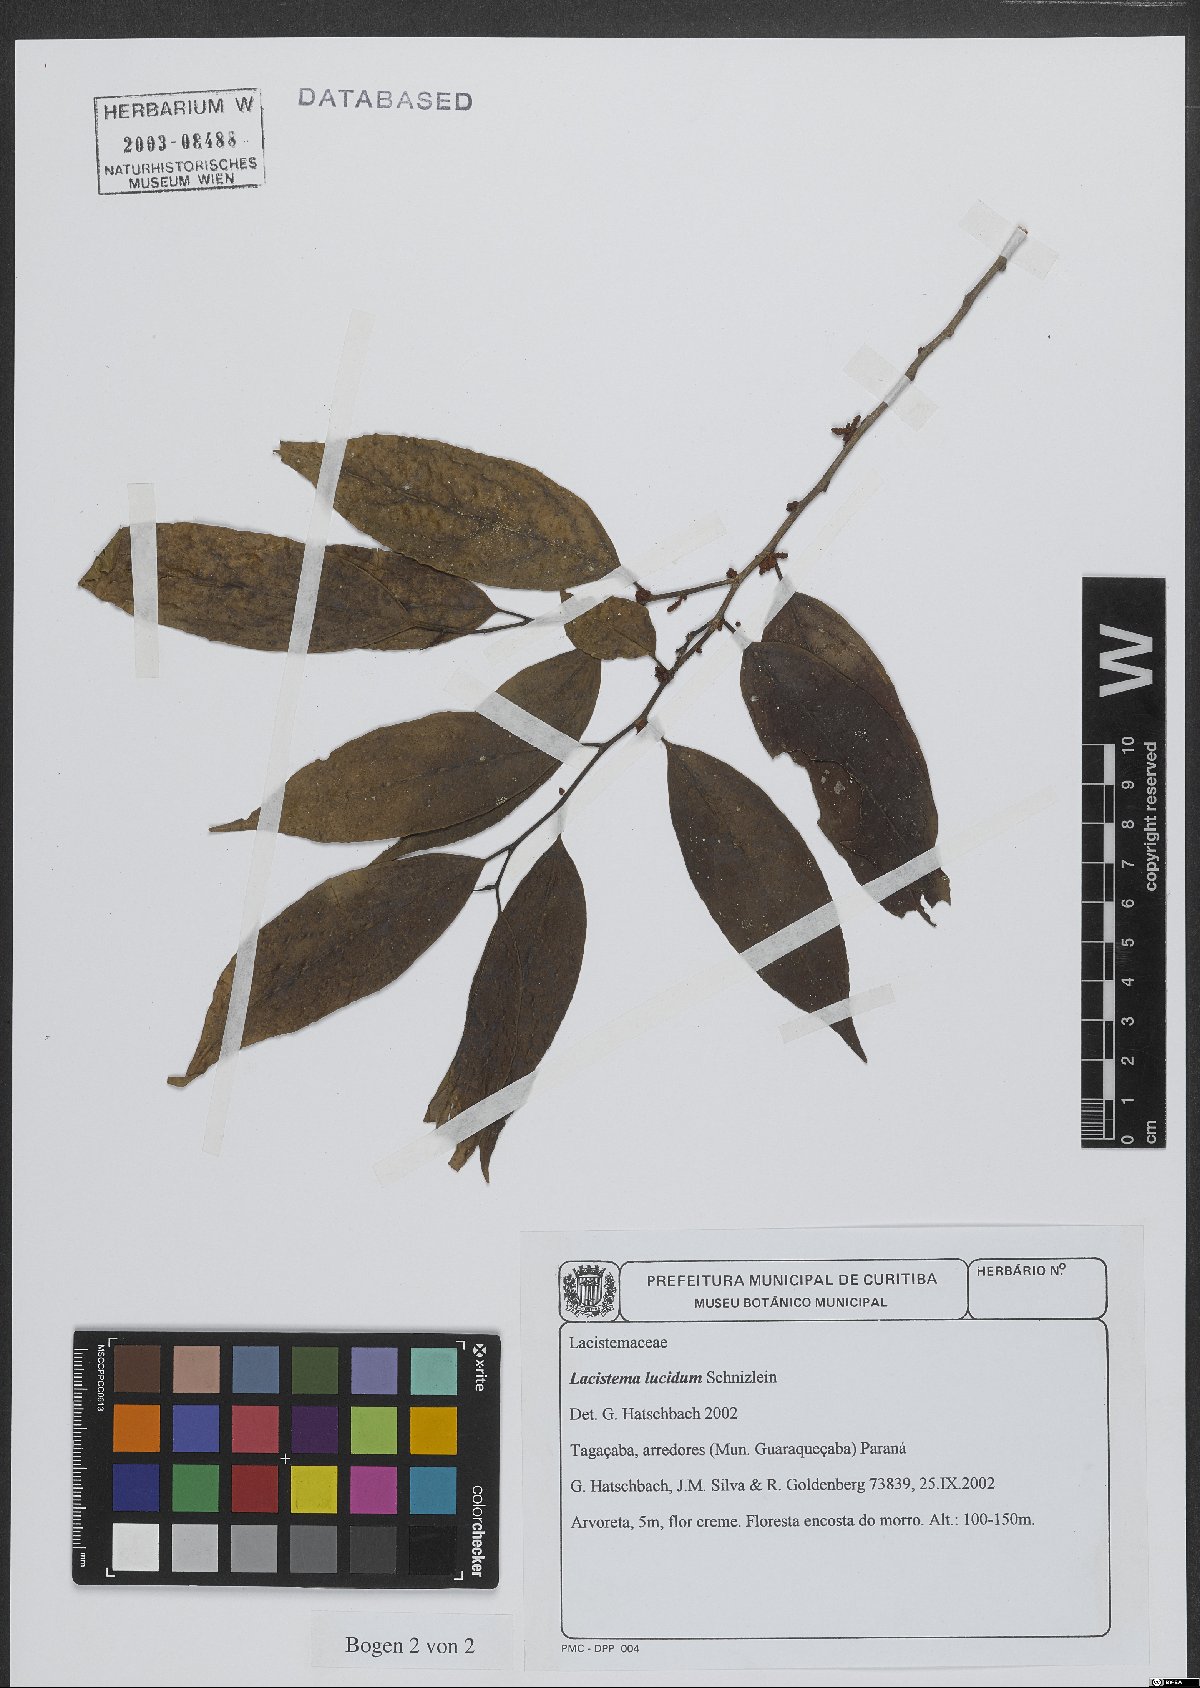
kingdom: Plantae
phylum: Tracheophyta
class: Magnoliopsida
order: Malpighiales
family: Lacistemataceae
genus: Lacistema
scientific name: Lacistema lucidum
